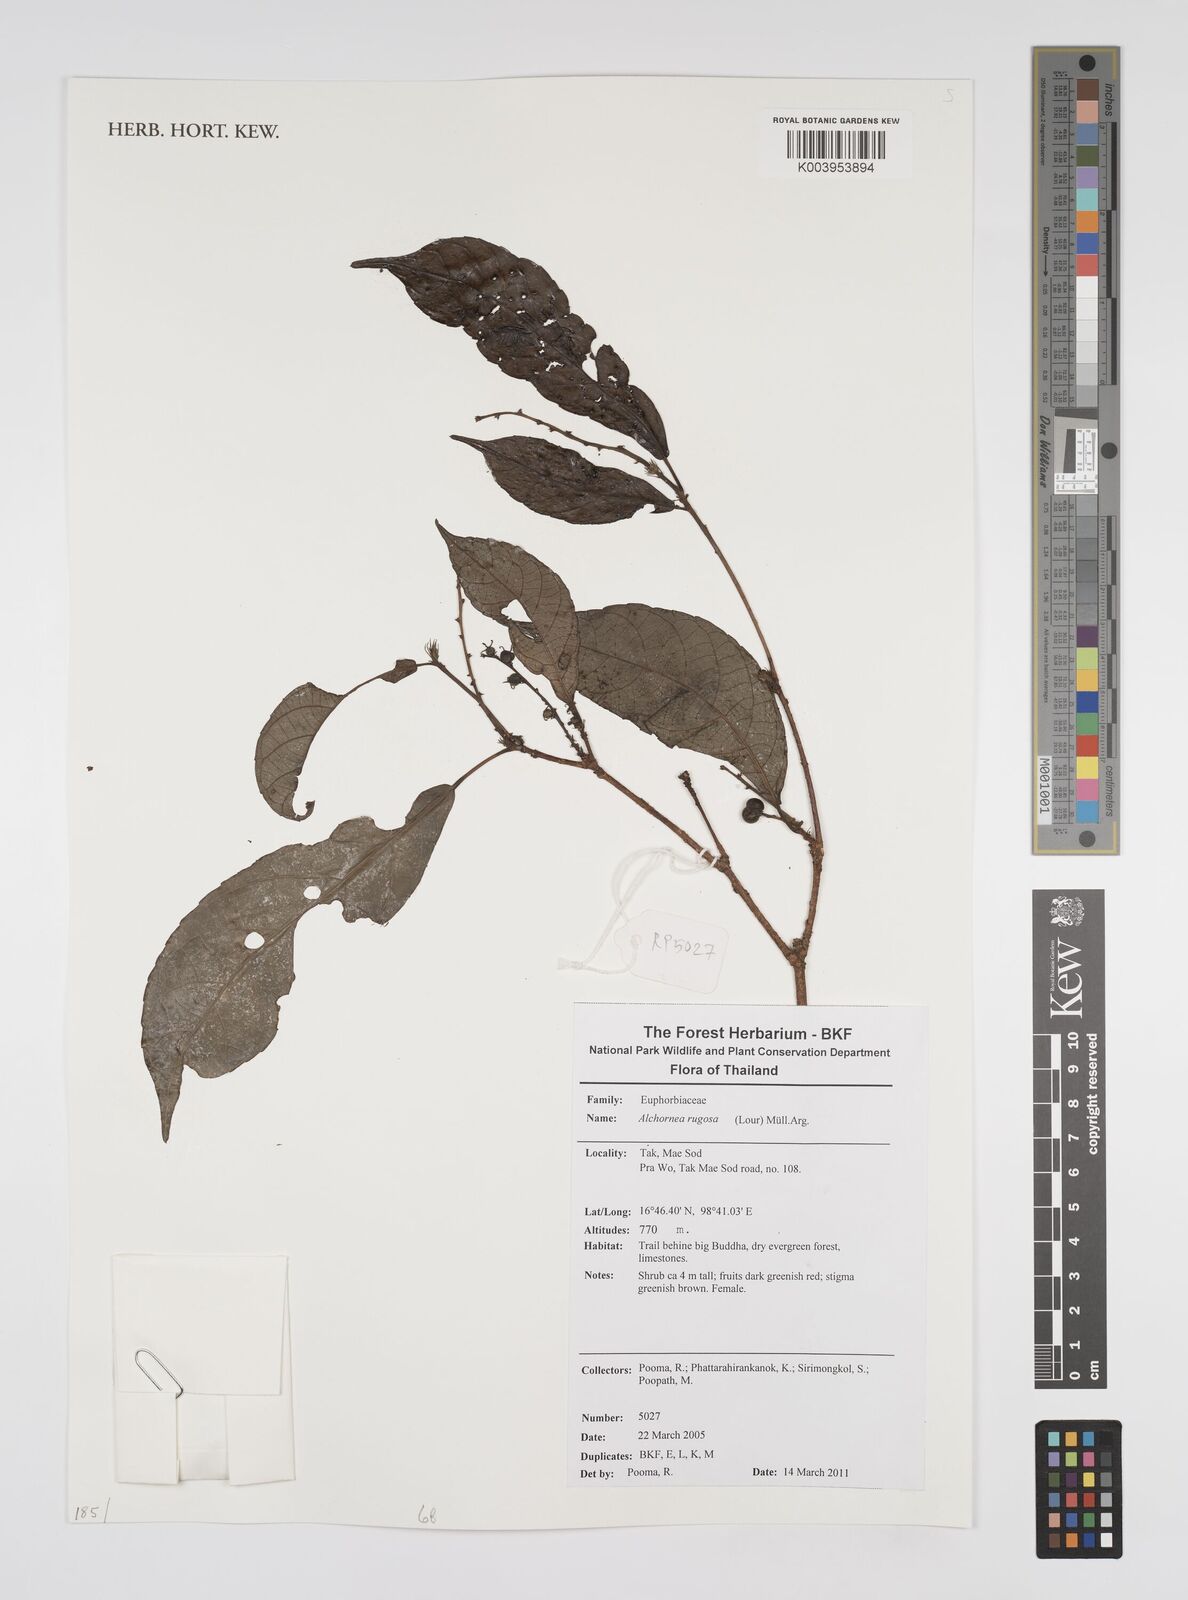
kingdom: Plantae
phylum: Tracheophyta
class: Magnoliopsida
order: Malpighiales
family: Euphorbiaceae
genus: Alchornea
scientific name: Alchornea rugosa
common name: Alchorntree
